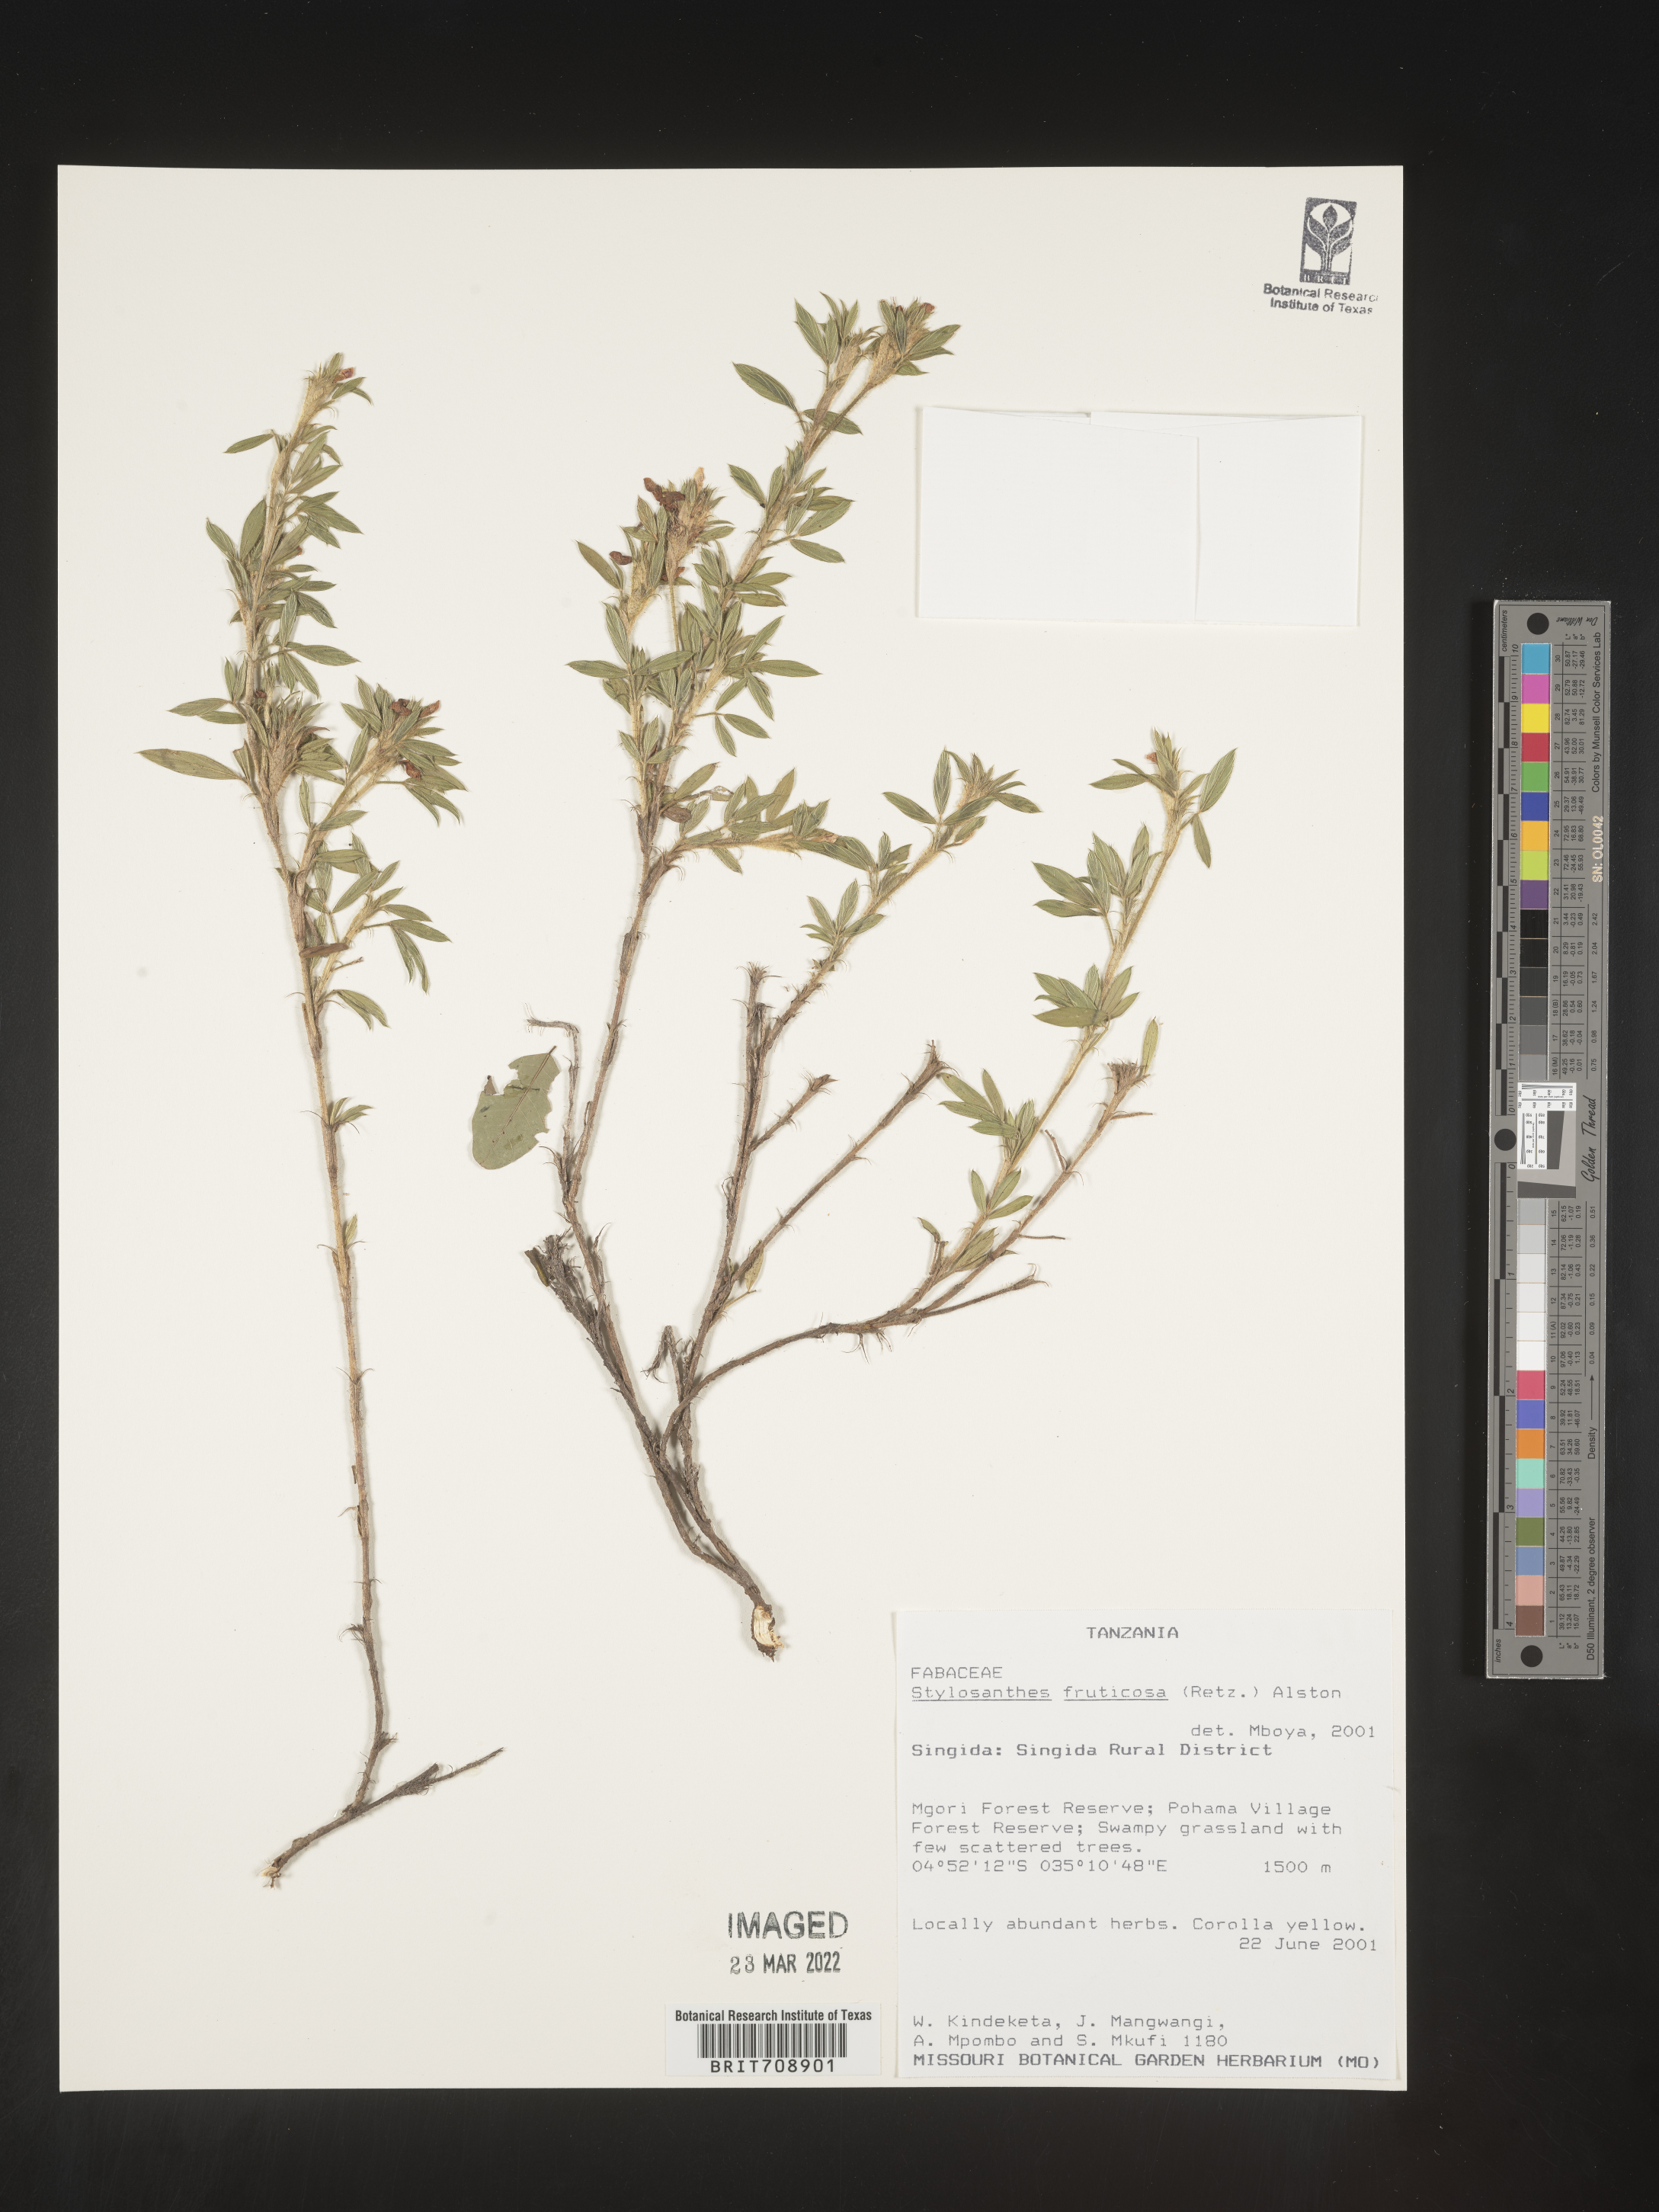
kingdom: Plantae
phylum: Tracheophyta
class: Magnoliopsida
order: Fabales
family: Fabaceae
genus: Stylosanthes
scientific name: Stylosanthes
